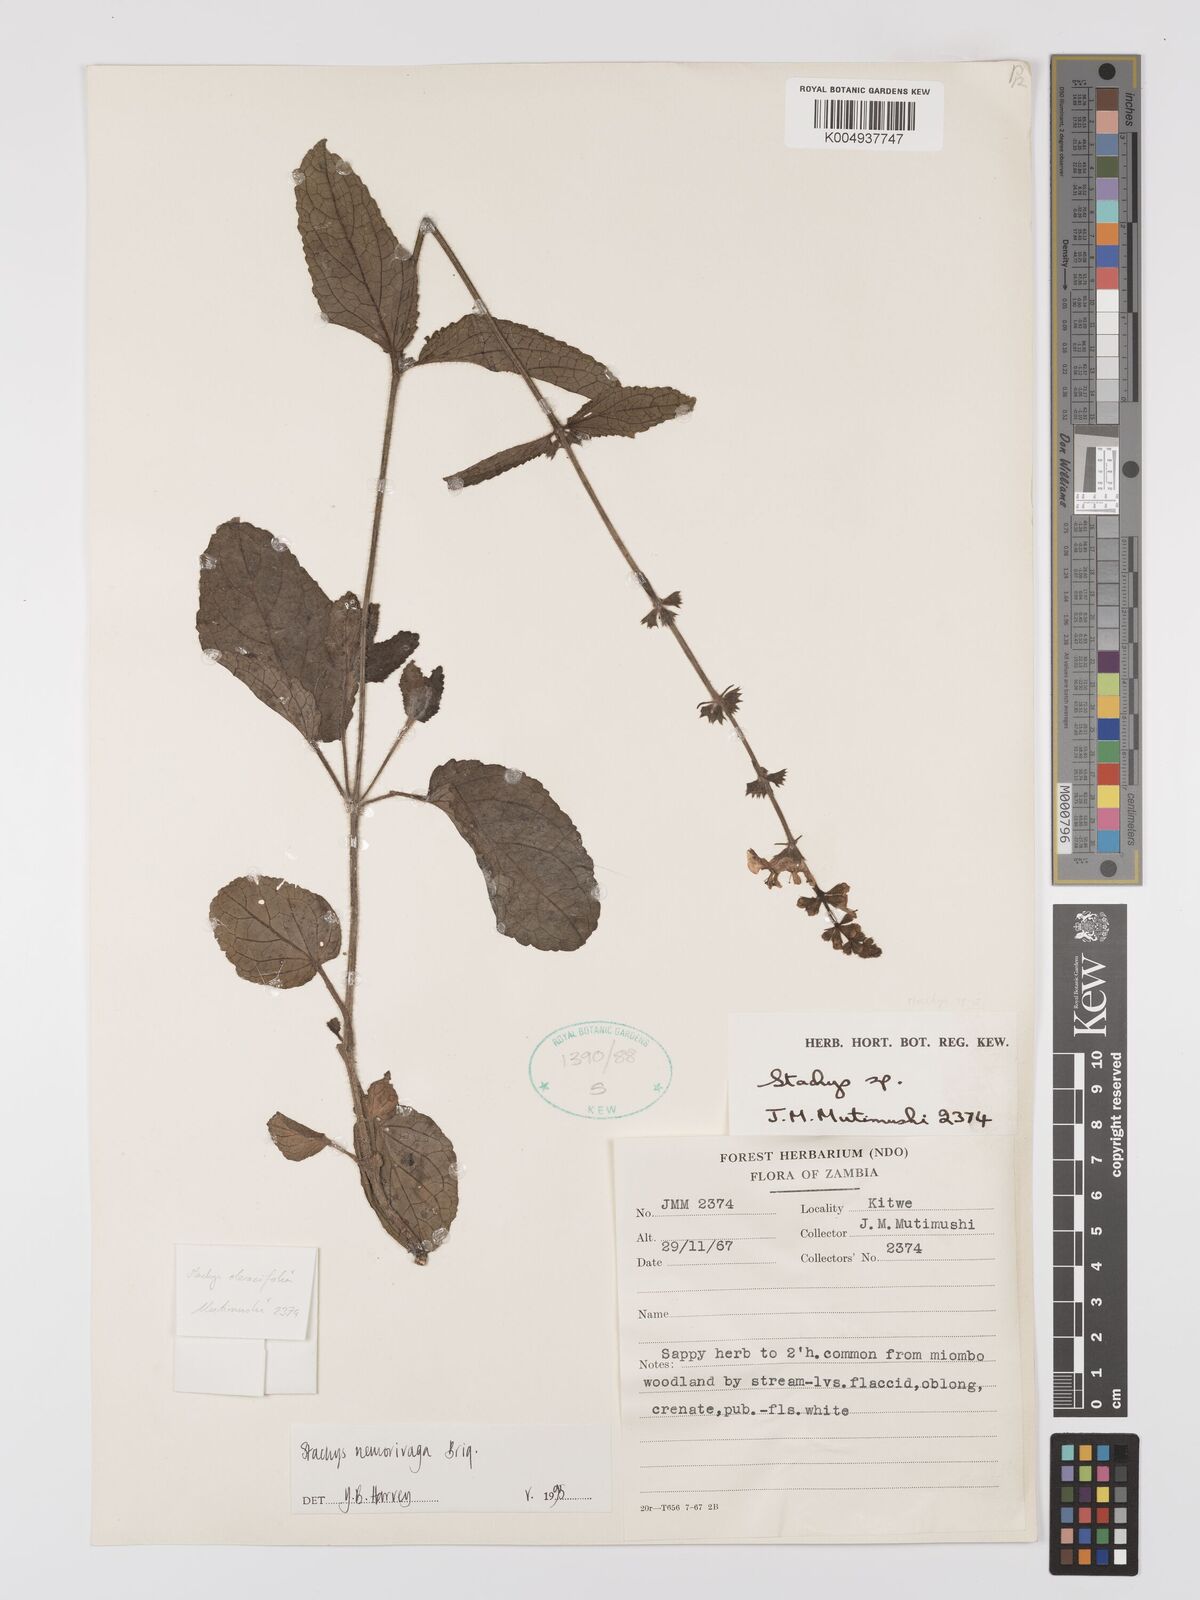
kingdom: Plantae
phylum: Tracheophyta
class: Magnoliopsida
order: Lamiales
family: Lamiaceae
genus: Stachys
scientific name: Stachys nemorivaga
